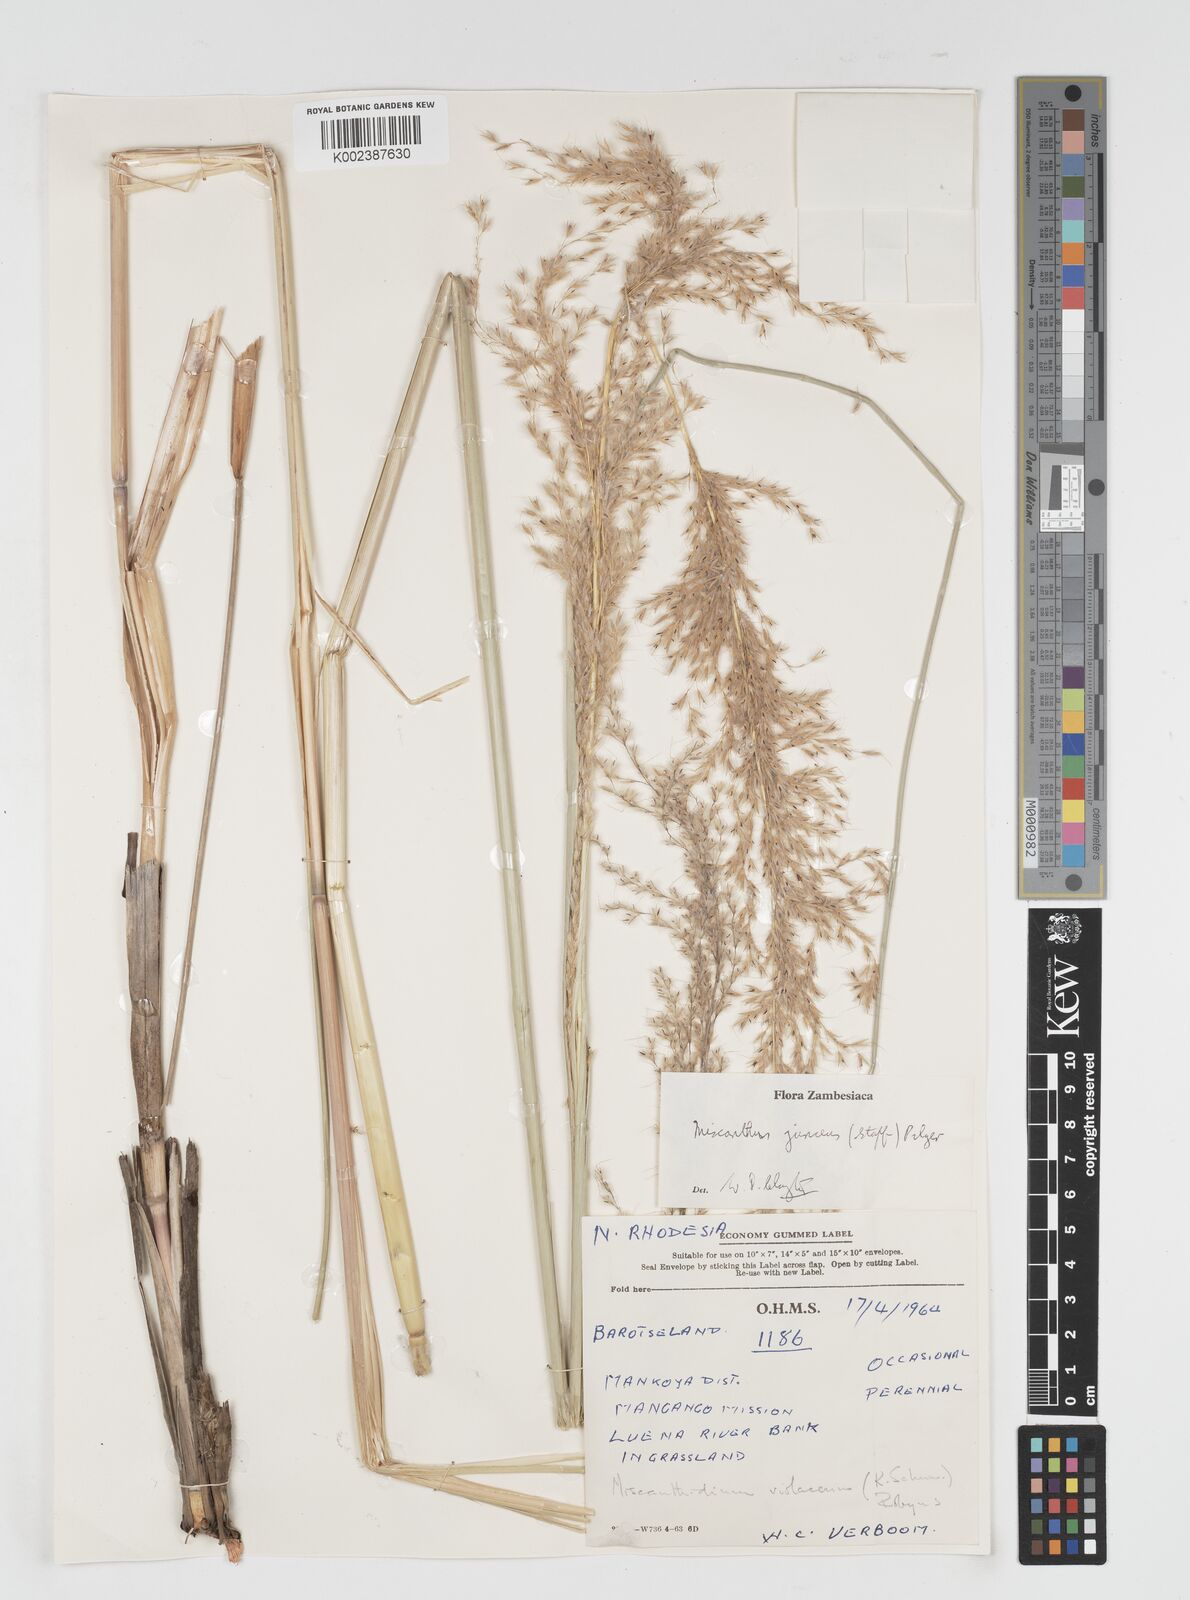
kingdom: Plantae
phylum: Tracheophyta
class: Liliopsida
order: Poales
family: Poaceae
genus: Miscanthidium
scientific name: Miscanthidium junceum
